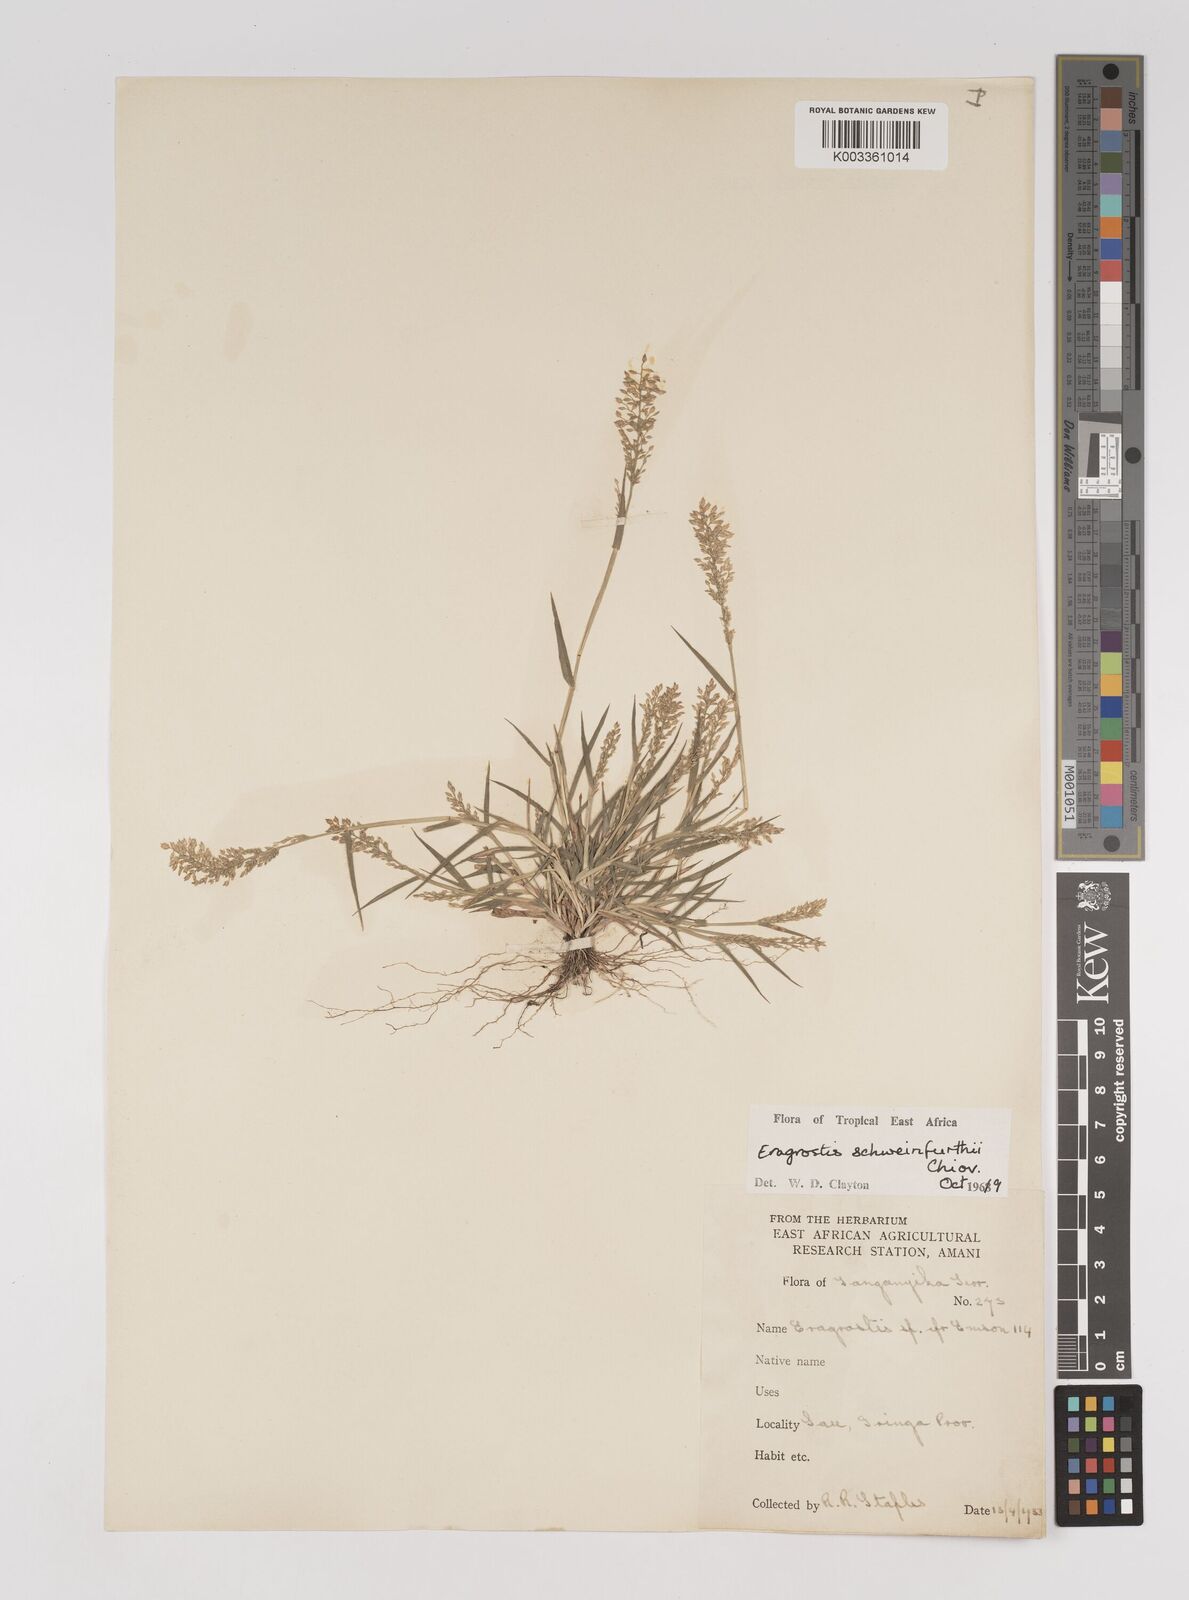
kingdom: Plantae
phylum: Tracheophyta
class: Liliopsida
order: Poales
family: Poaceae
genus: Eragrostis
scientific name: Eragrostis schweinfurthii
